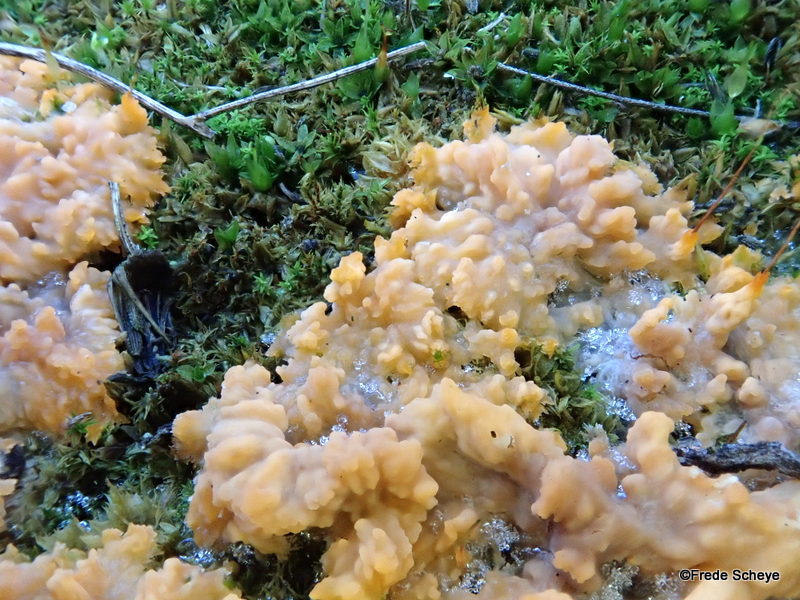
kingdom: Fungi
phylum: Basidiomycota
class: Agaricomycetes
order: Polyporales
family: Meruliaceae
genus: Phlebia
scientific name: Phlebia radiata
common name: stråle-åresvamp
